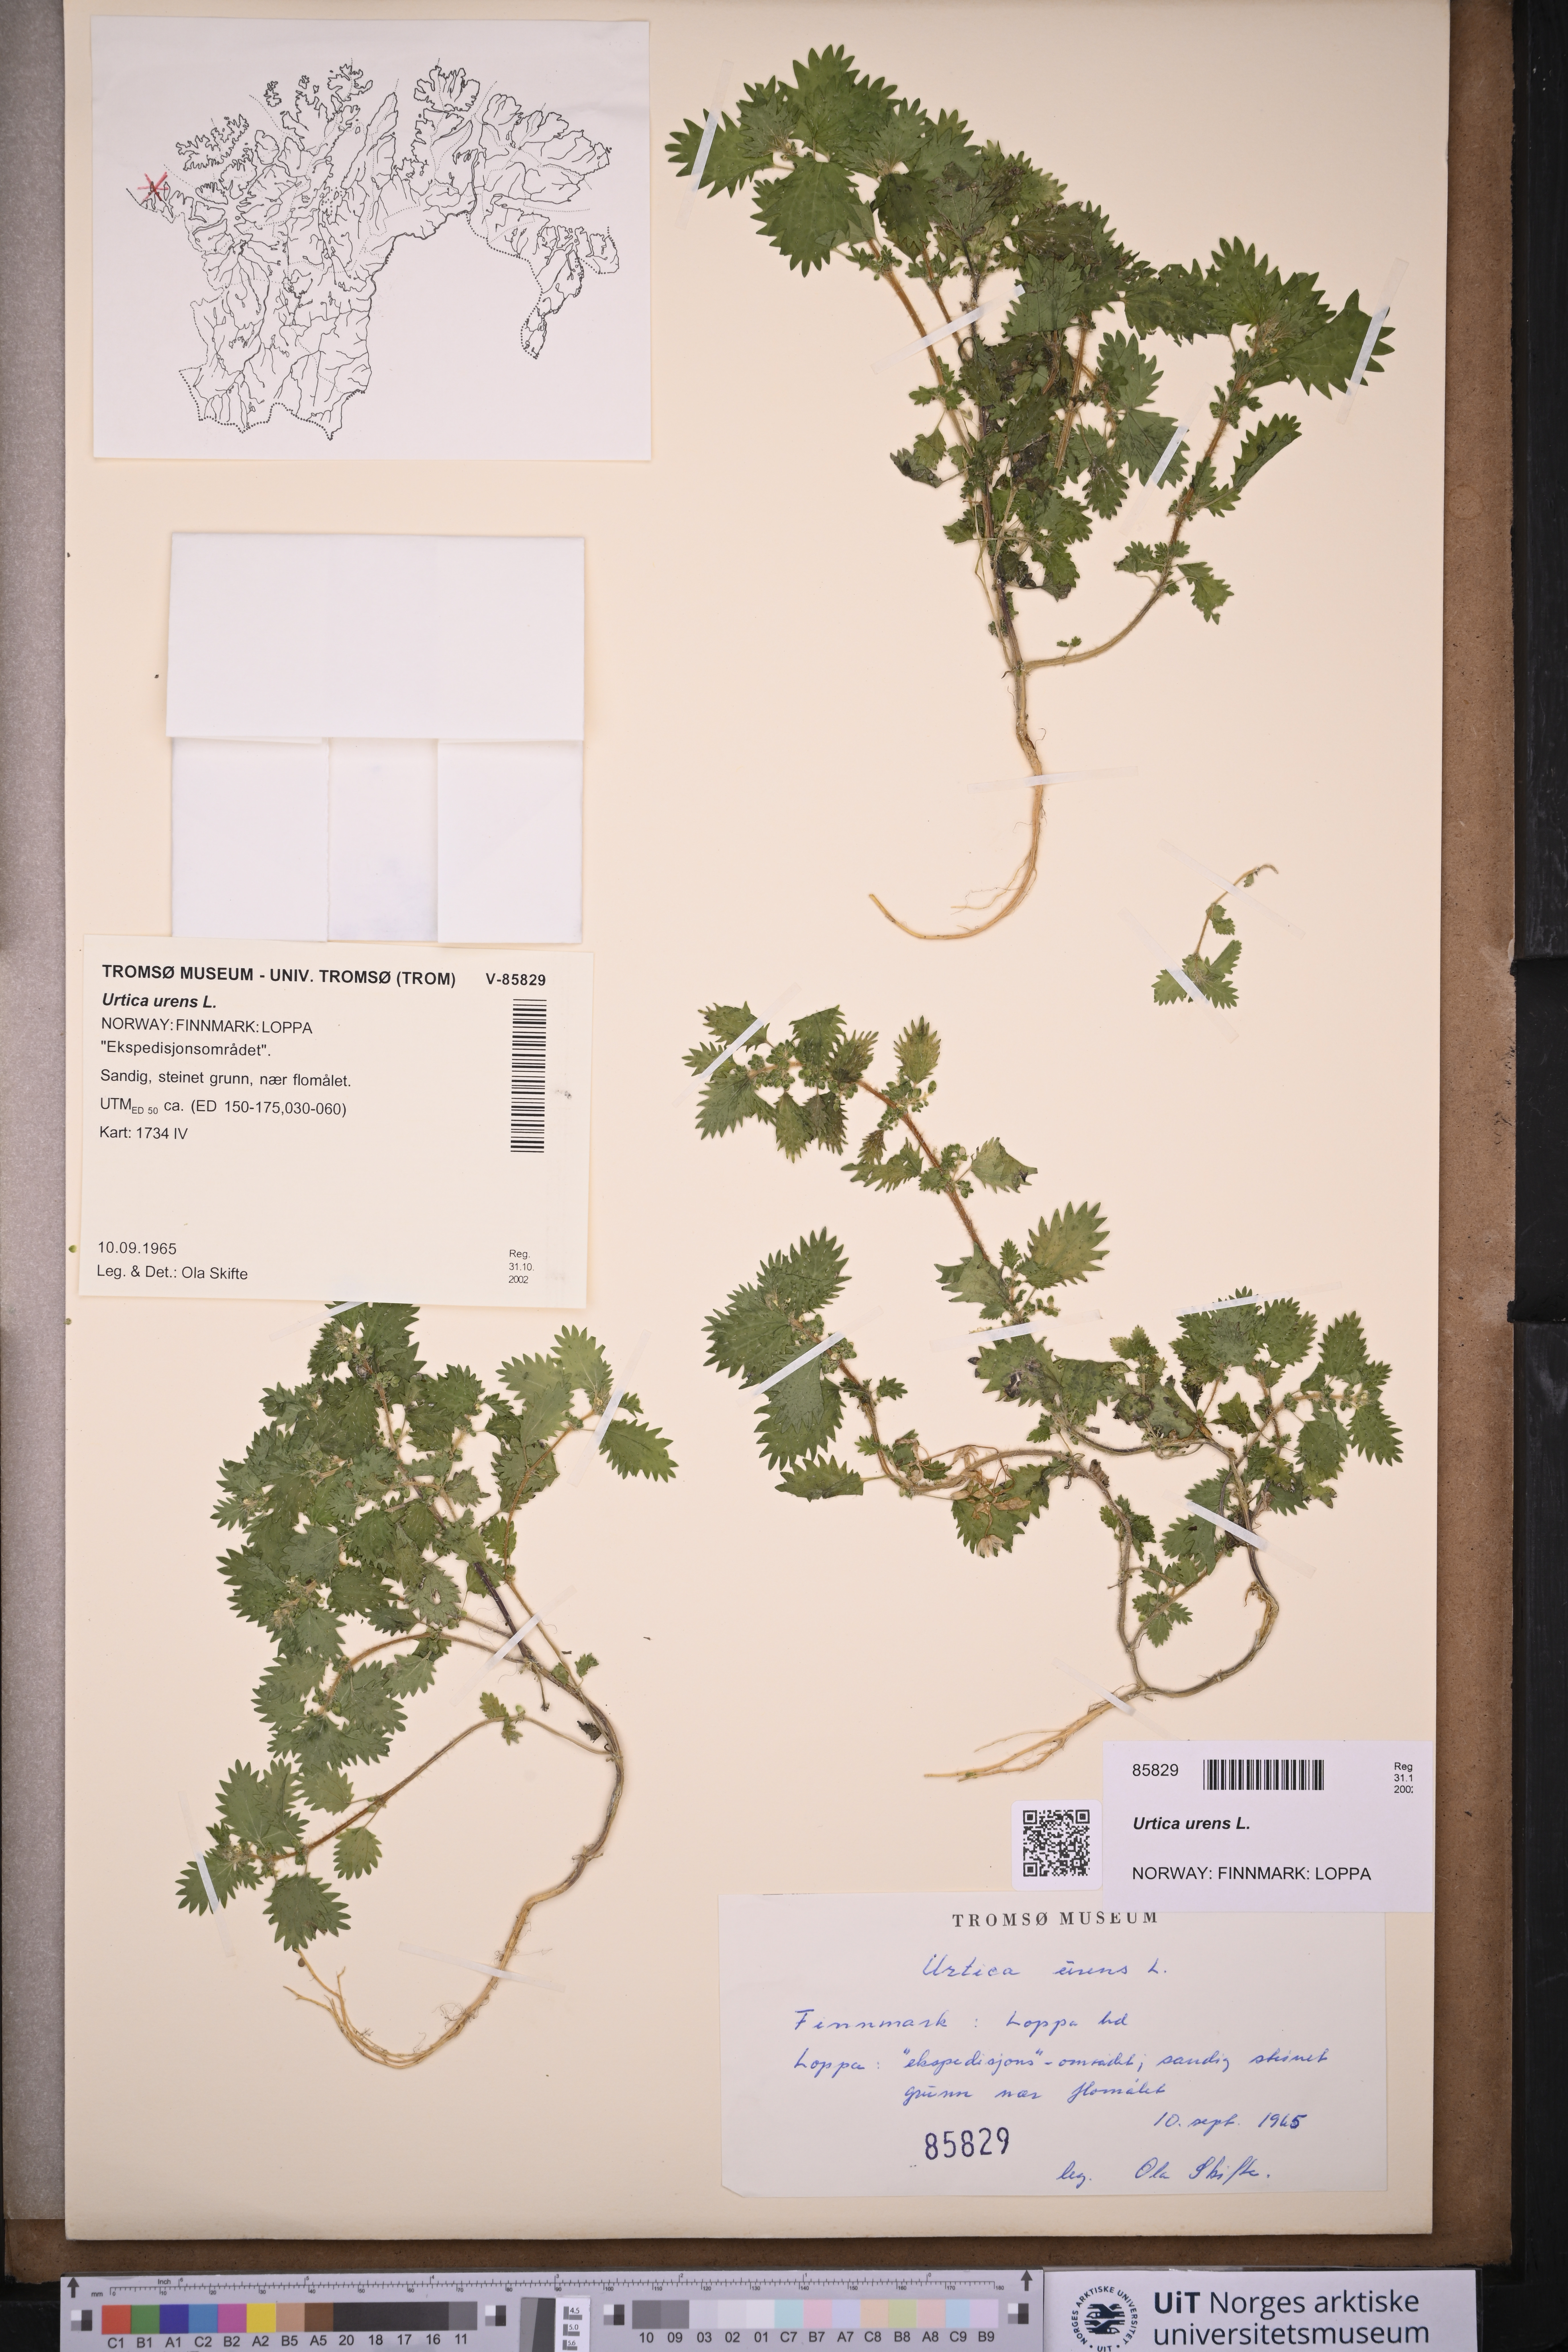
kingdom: Plantae
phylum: Tracheophyta
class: Magnoliopsida
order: Rosales
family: Urticaceae
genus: Urtica
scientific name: Urtica urens
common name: Dwarf nettle
